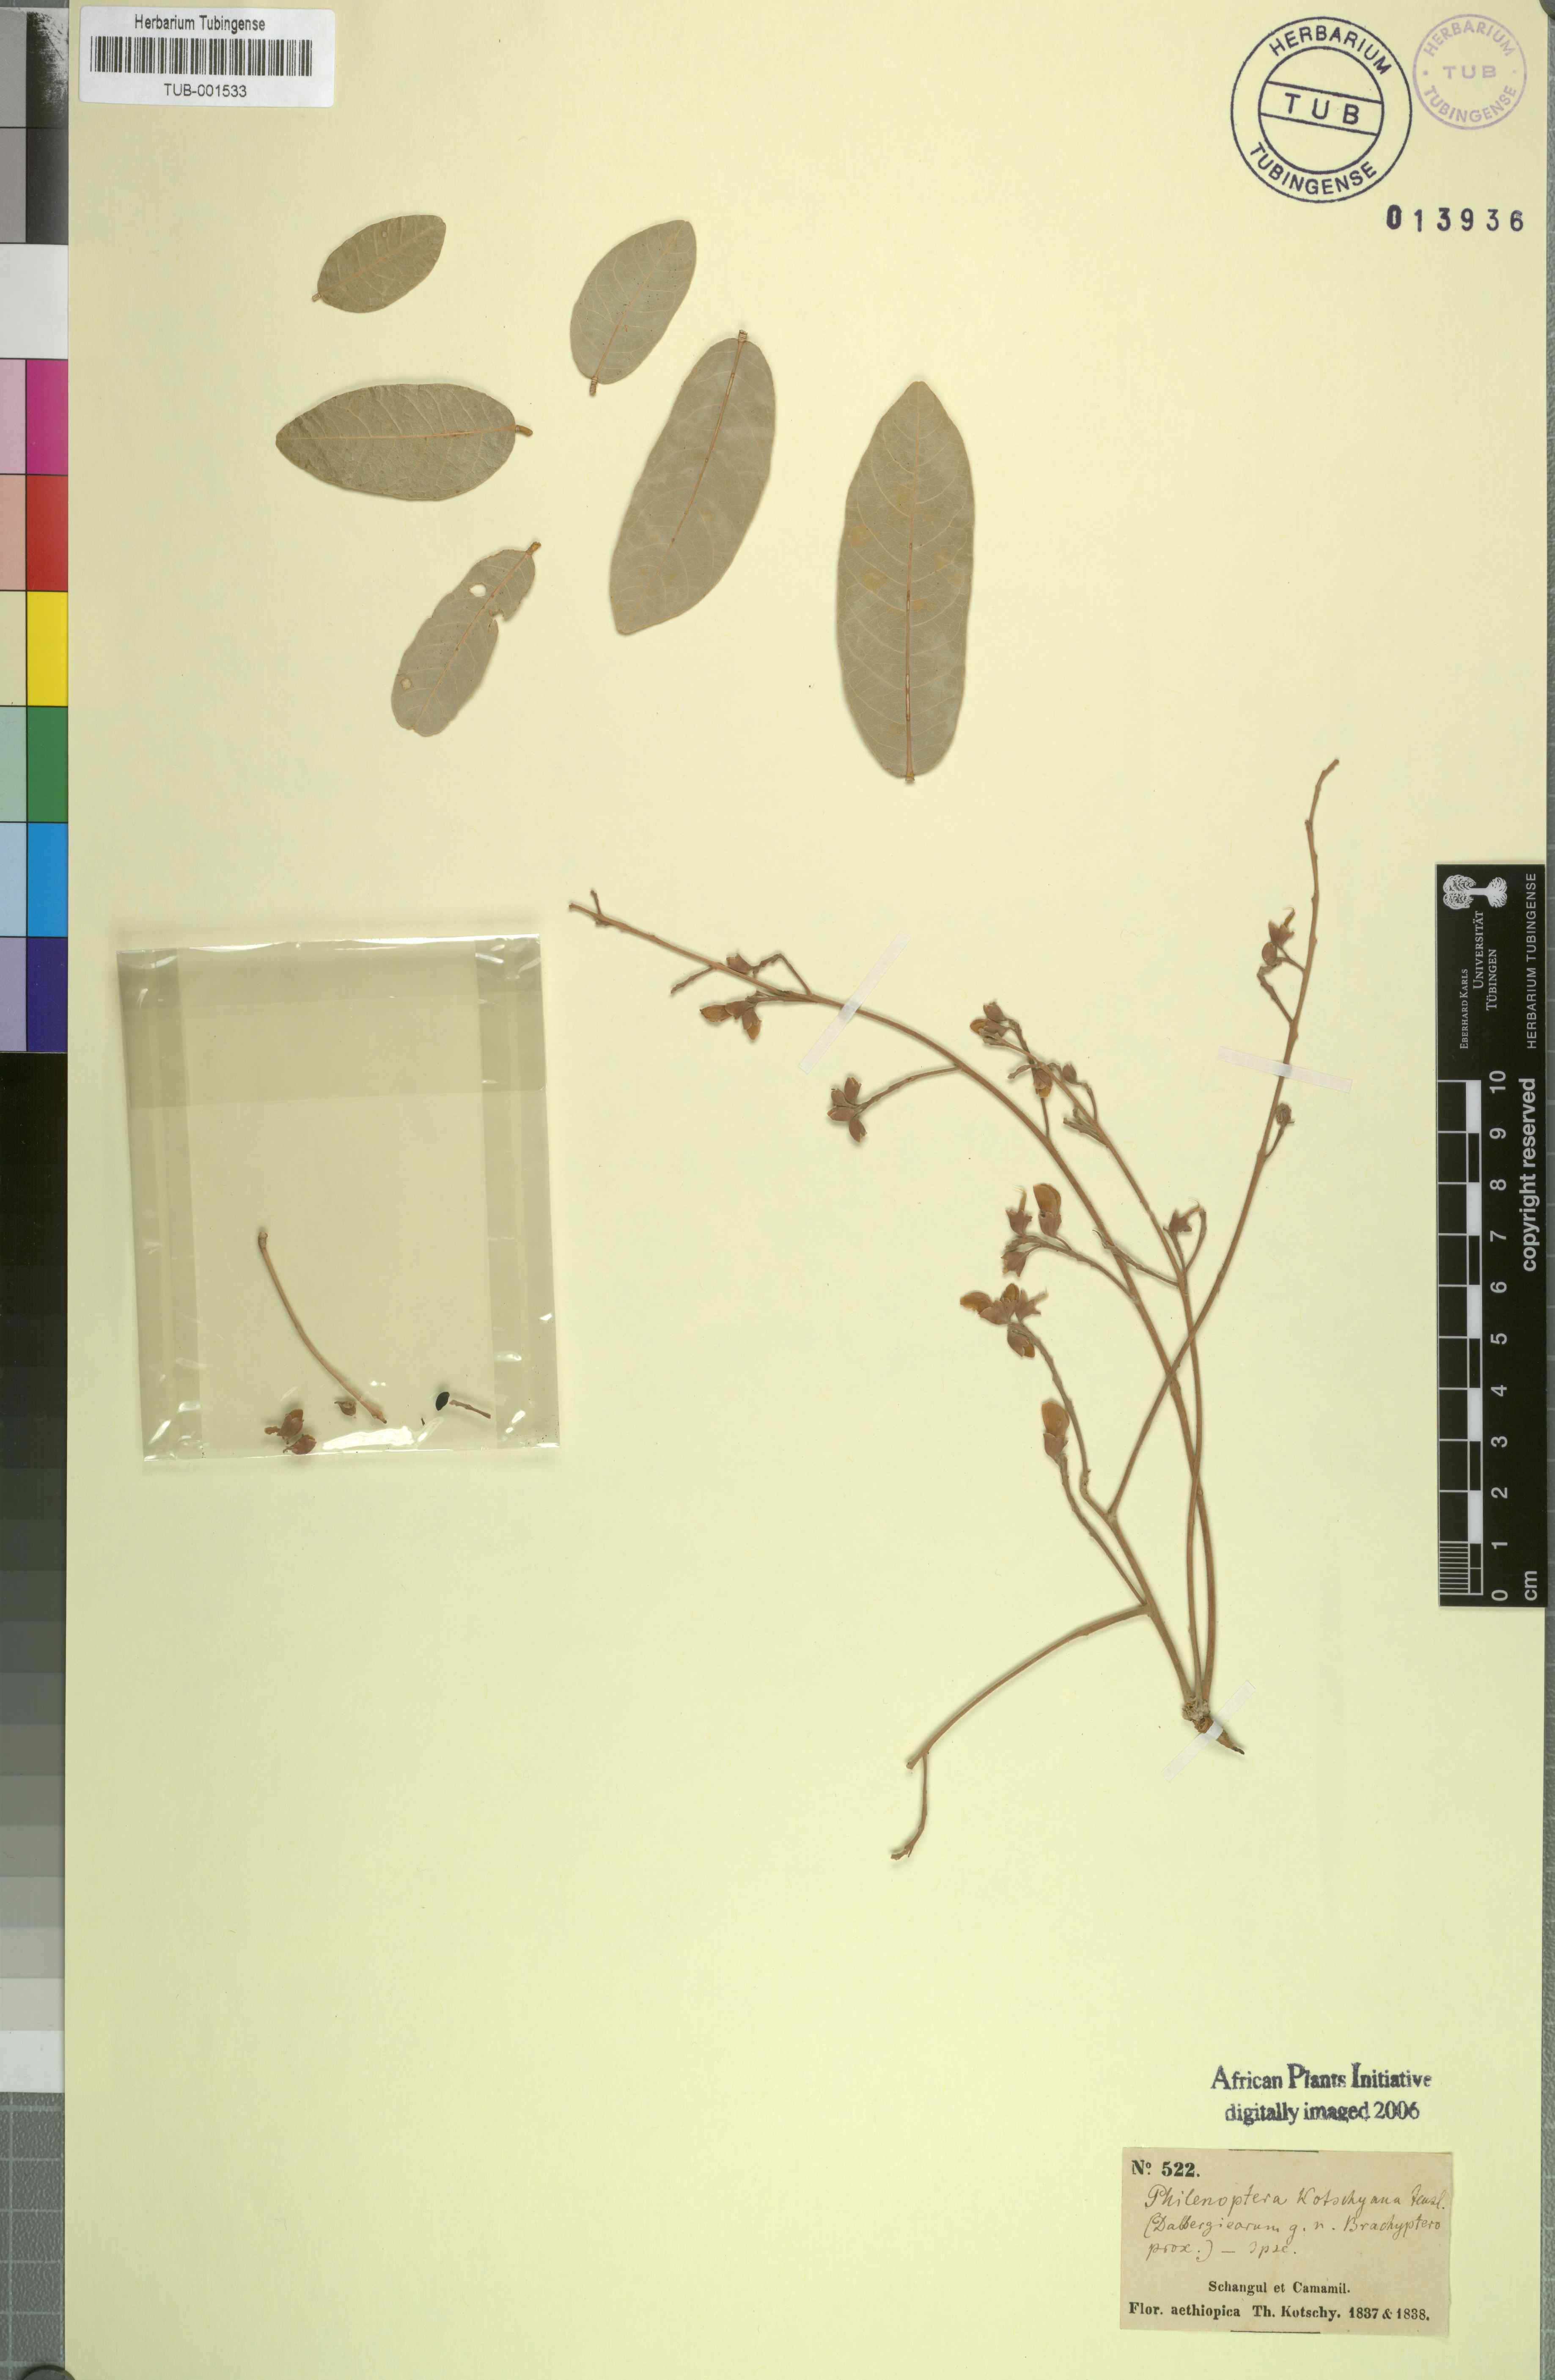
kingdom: Plantae
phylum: Tracheophyta
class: Magnoliopsida
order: Fabales
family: Fabaceae
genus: Philenoptera
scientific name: Philenoptera laxiflora
